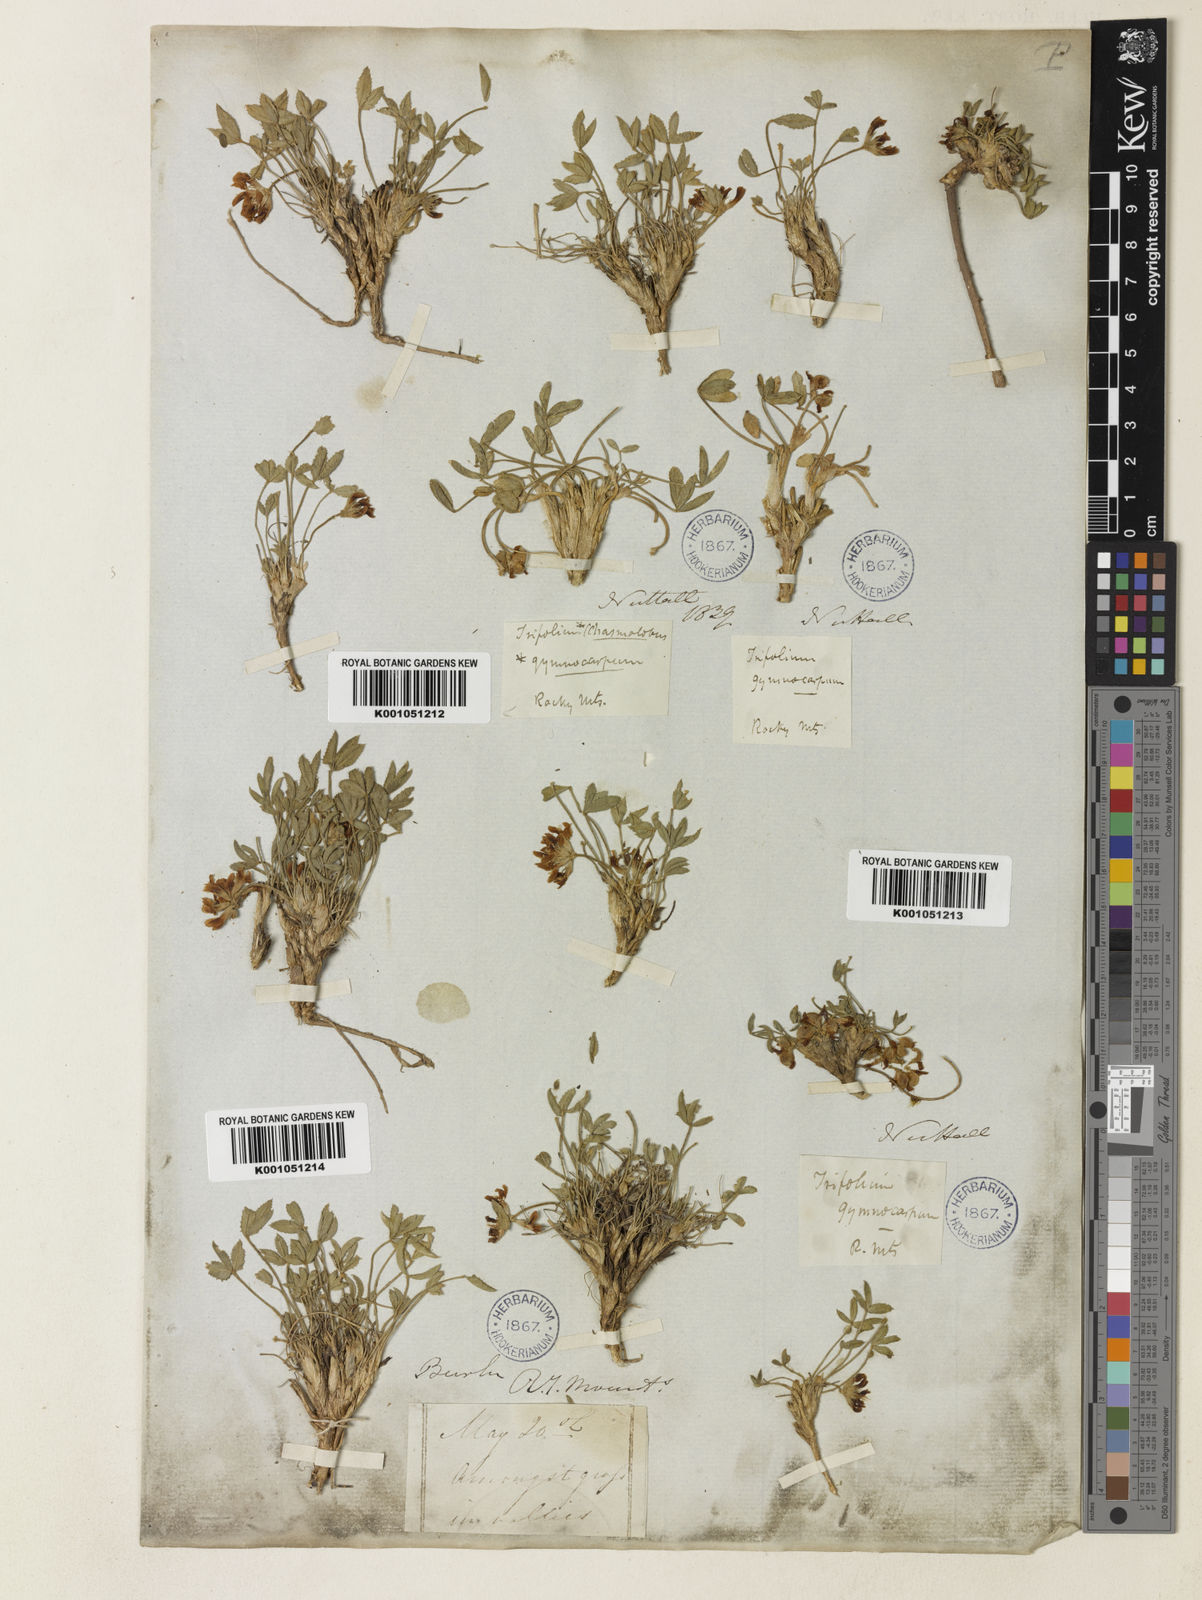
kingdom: Plantae
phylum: Tracheophyta
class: Magnoliopsida
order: Fabales
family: Fabaceae
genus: Trifolium
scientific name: Trifolium gymnocarpon
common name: Tufted clover
